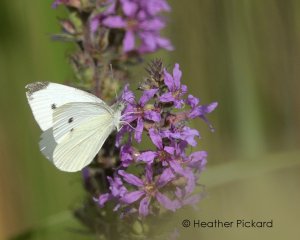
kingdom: Animalia
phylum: Arthropoda
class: Insecta
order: Lepidoptera
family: Pieridae
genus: Pieris
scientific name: Pieris rapae
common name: Cabbage White
